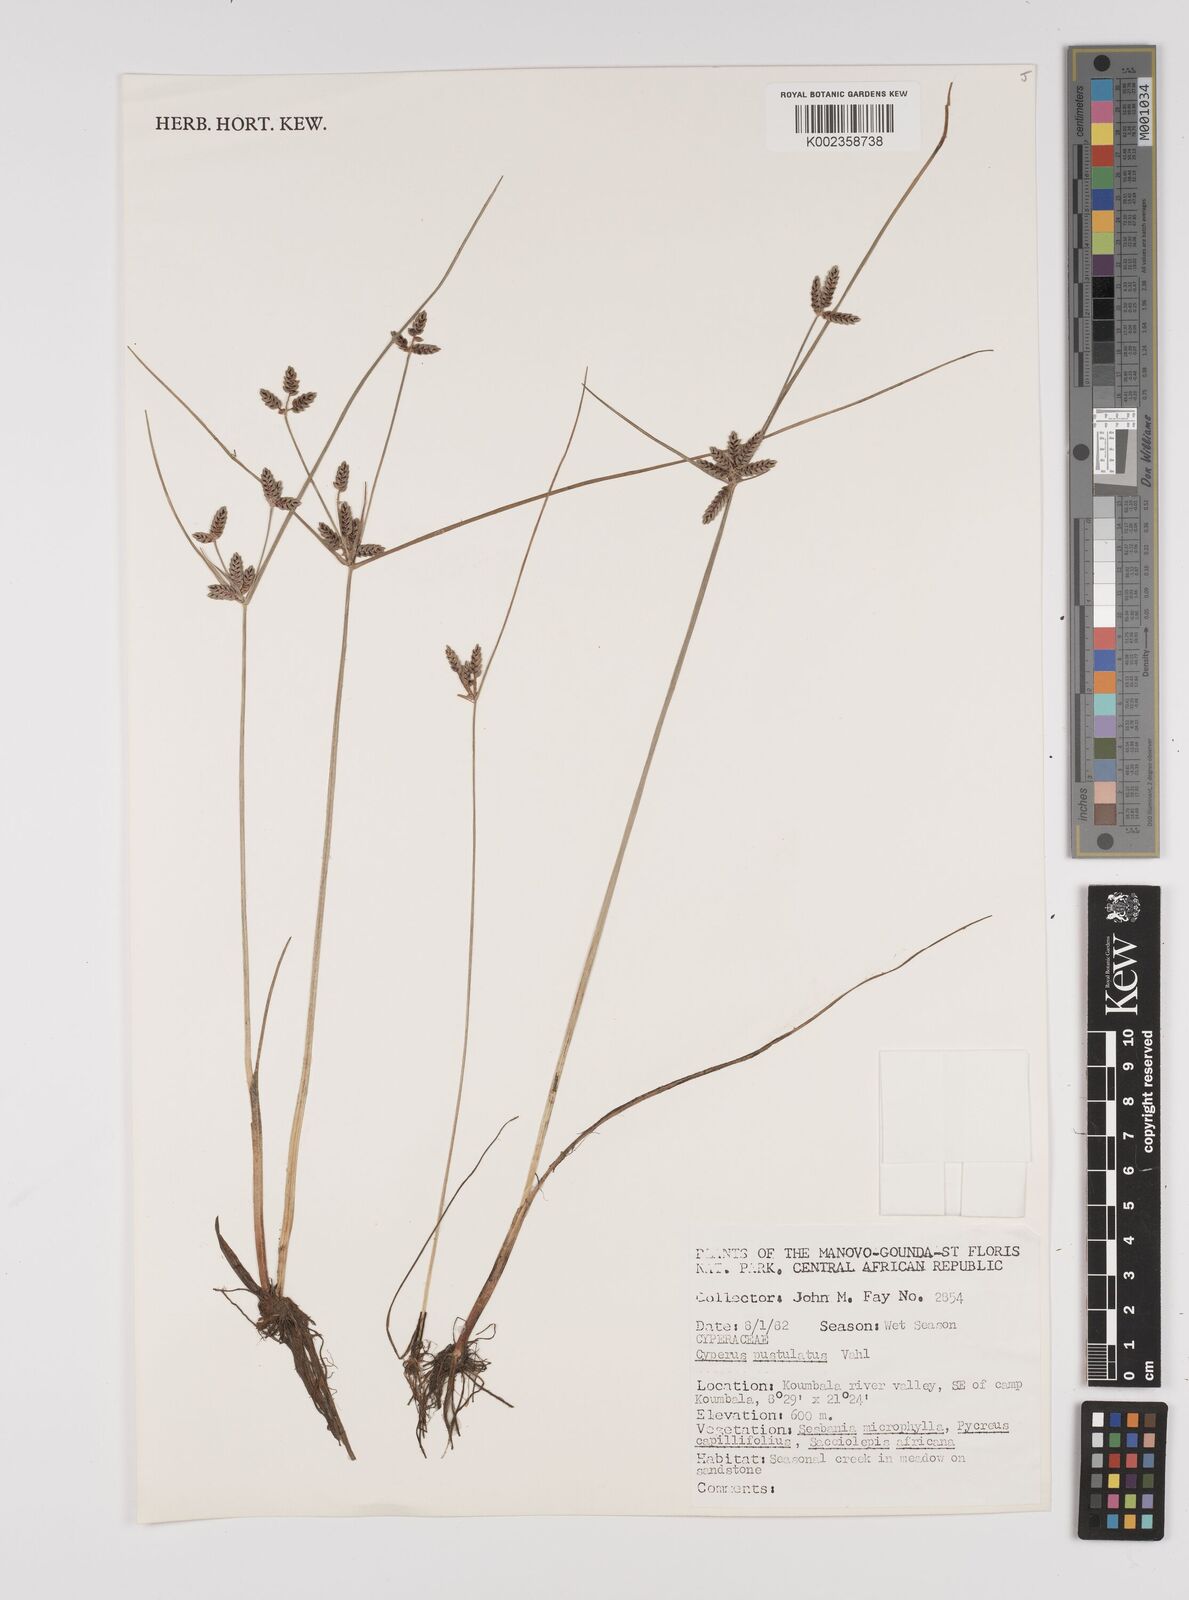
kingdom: Plantae
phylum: Tracheophyta
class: Liliopsida
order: Poales
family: Cyperaceae
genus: Cyperus
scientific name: Cyperus pustulatus
